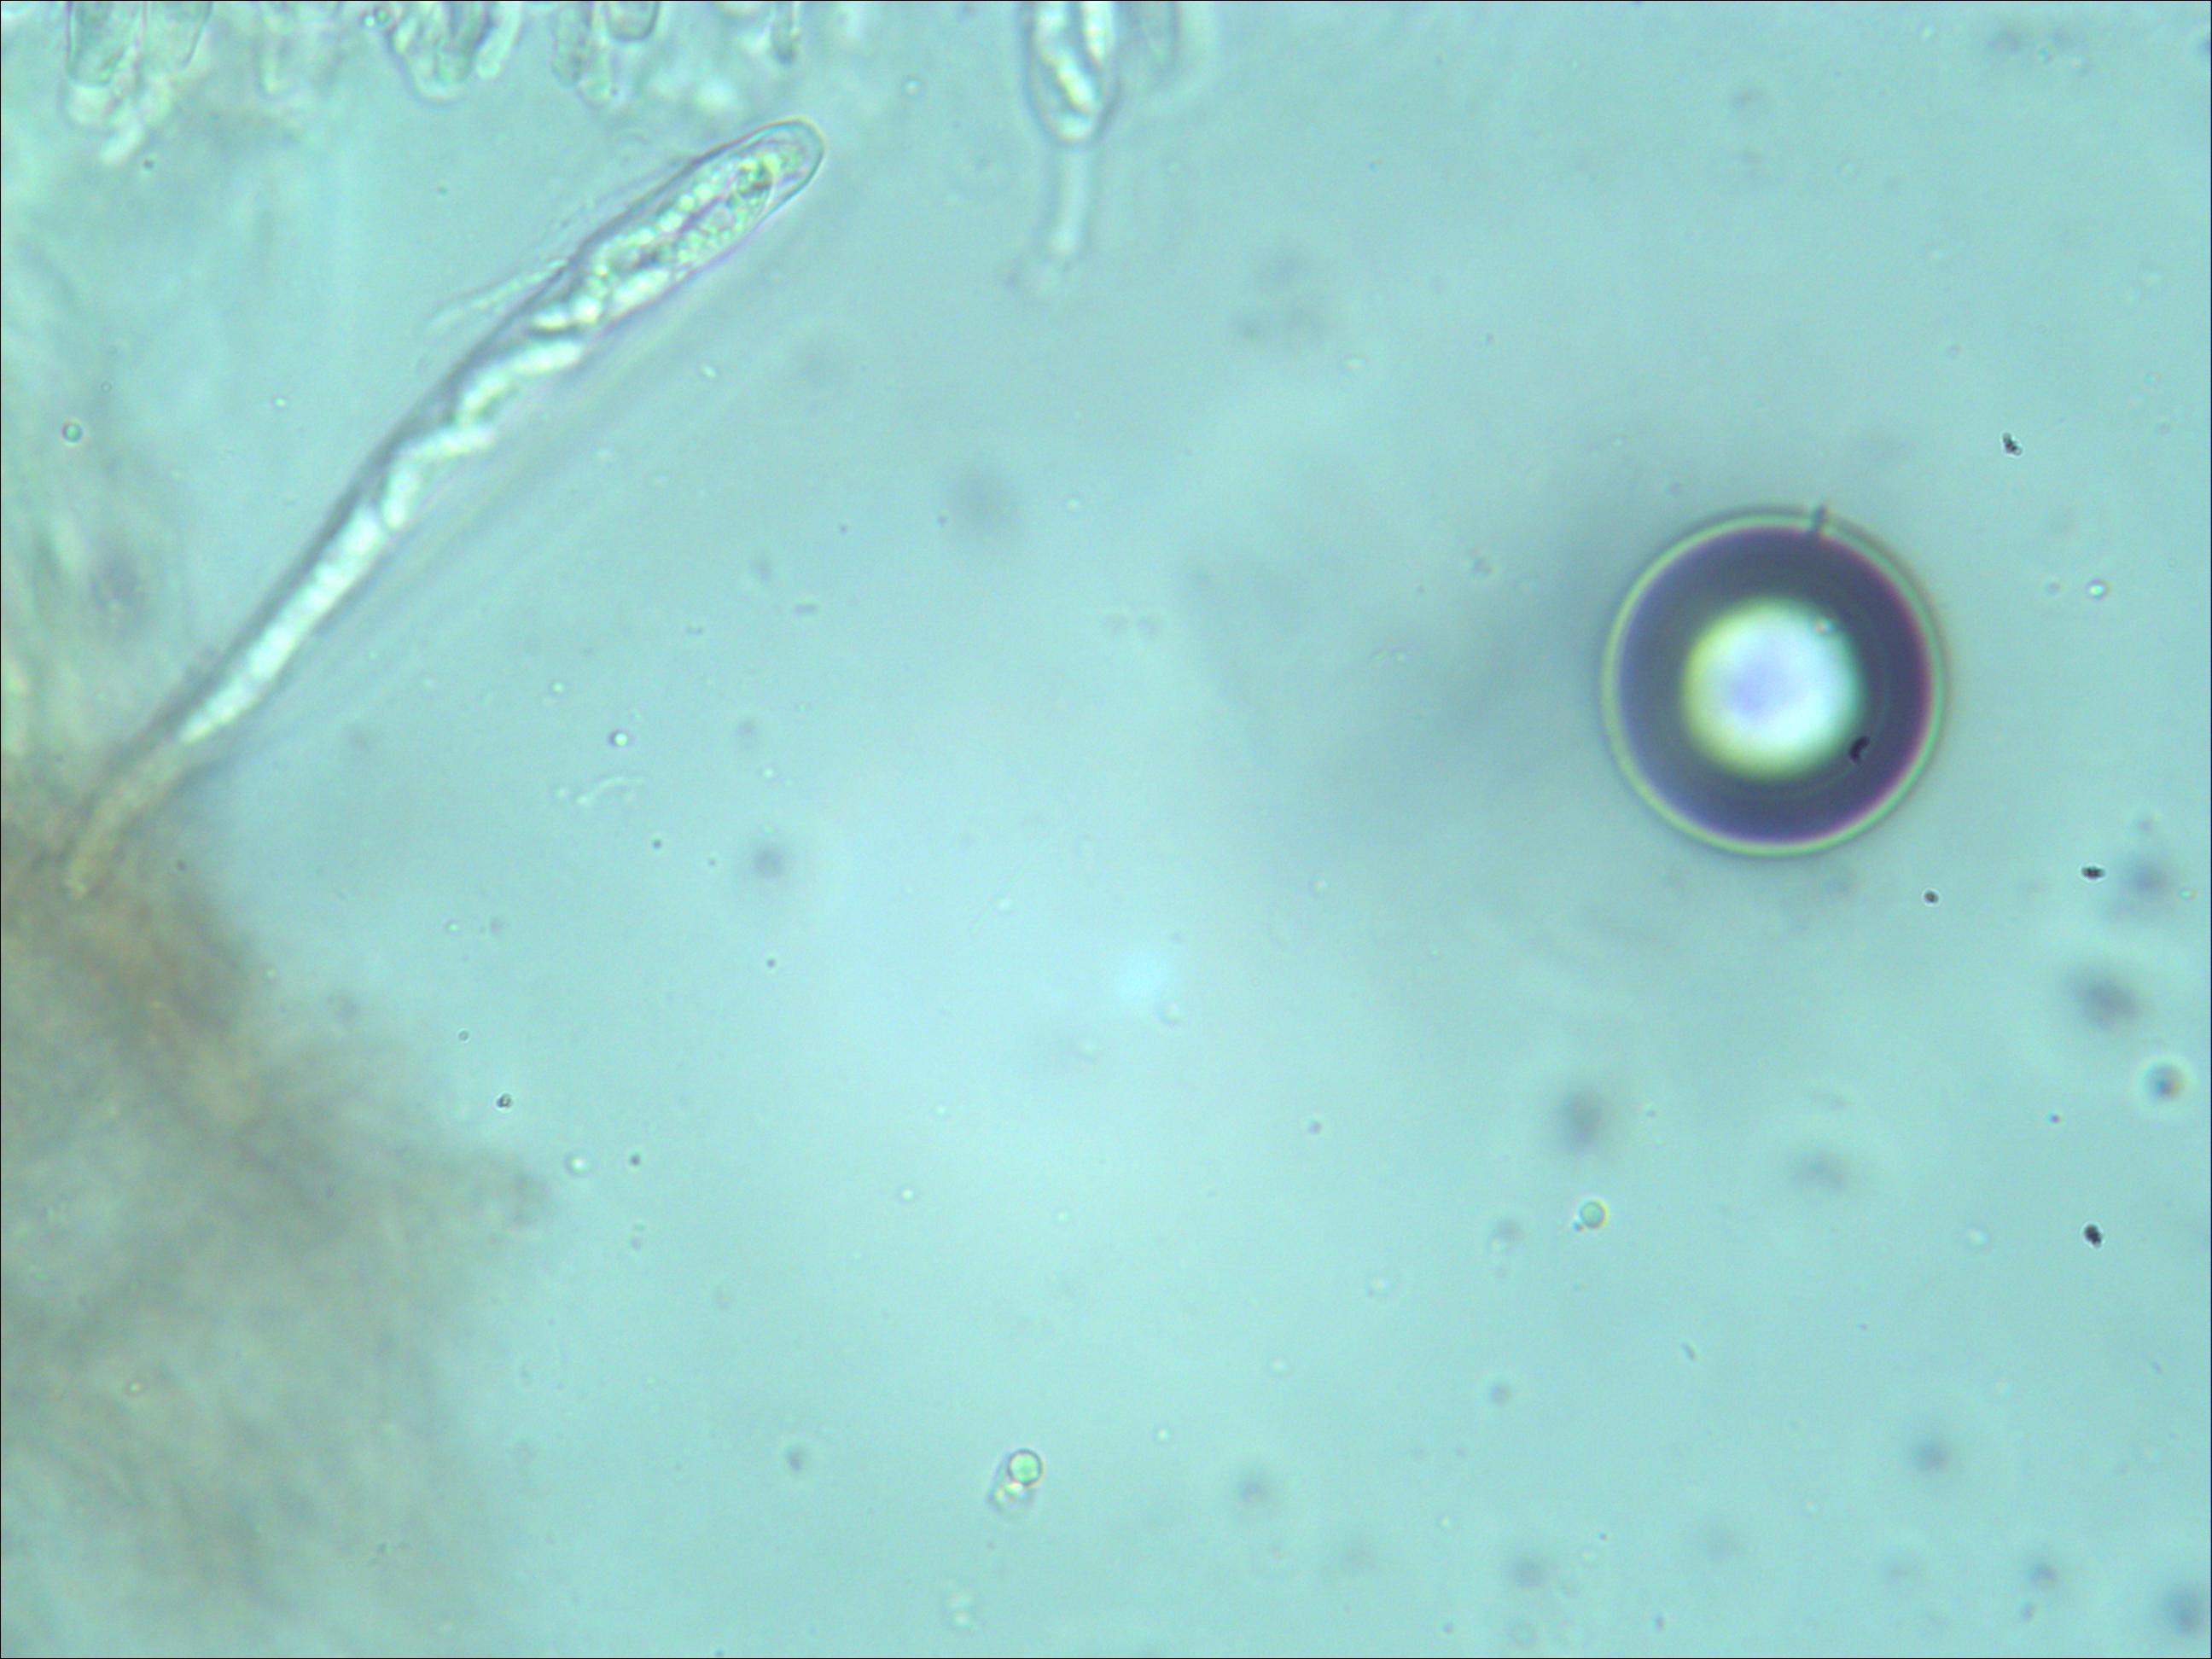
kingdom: Fungi
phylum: Ascomycota
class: Leotiomycetes
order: Helotiales
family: Rutstroemiaceae
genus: Rutstroemia
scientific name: Rutstroemia petiolorum
